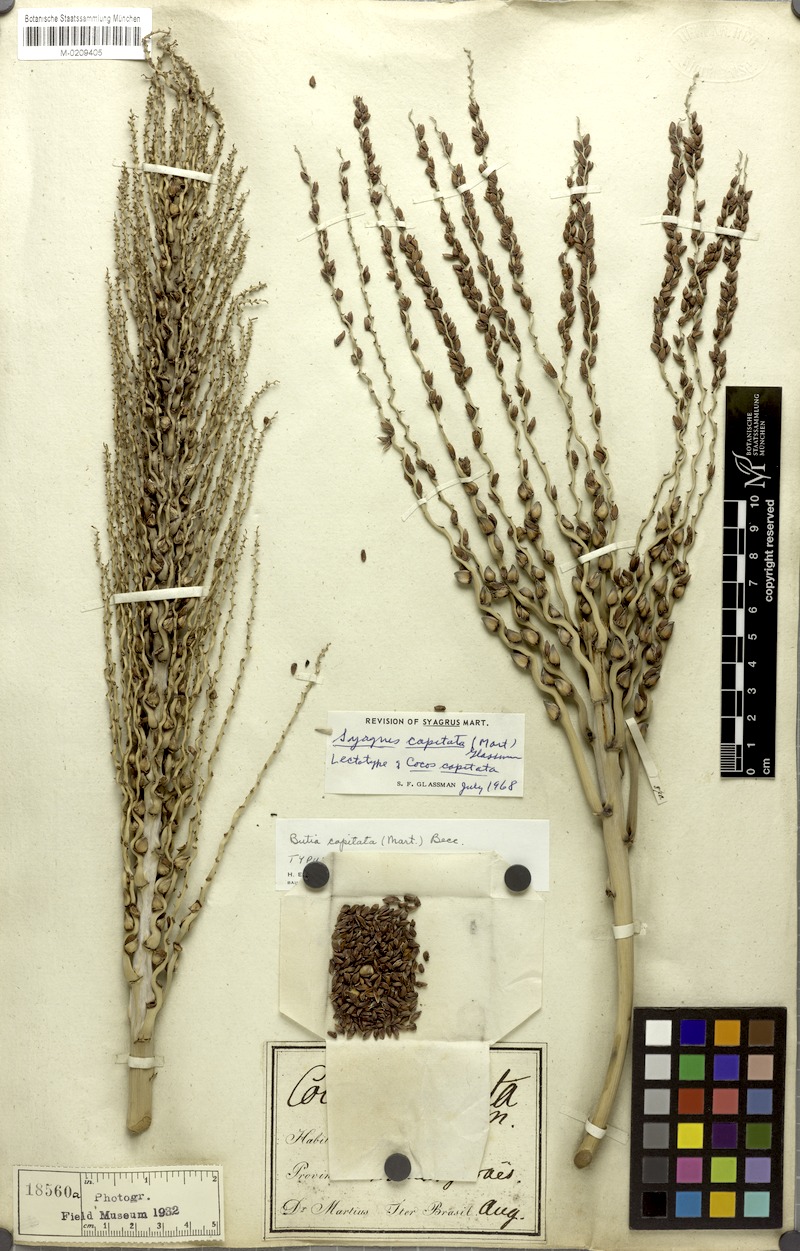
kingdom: Plantae
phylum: Tracheophyta
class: Liliopsida
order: Arecales
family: Arecaceae
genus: Butia
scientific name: Butia capitata
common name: South american jelly palm
